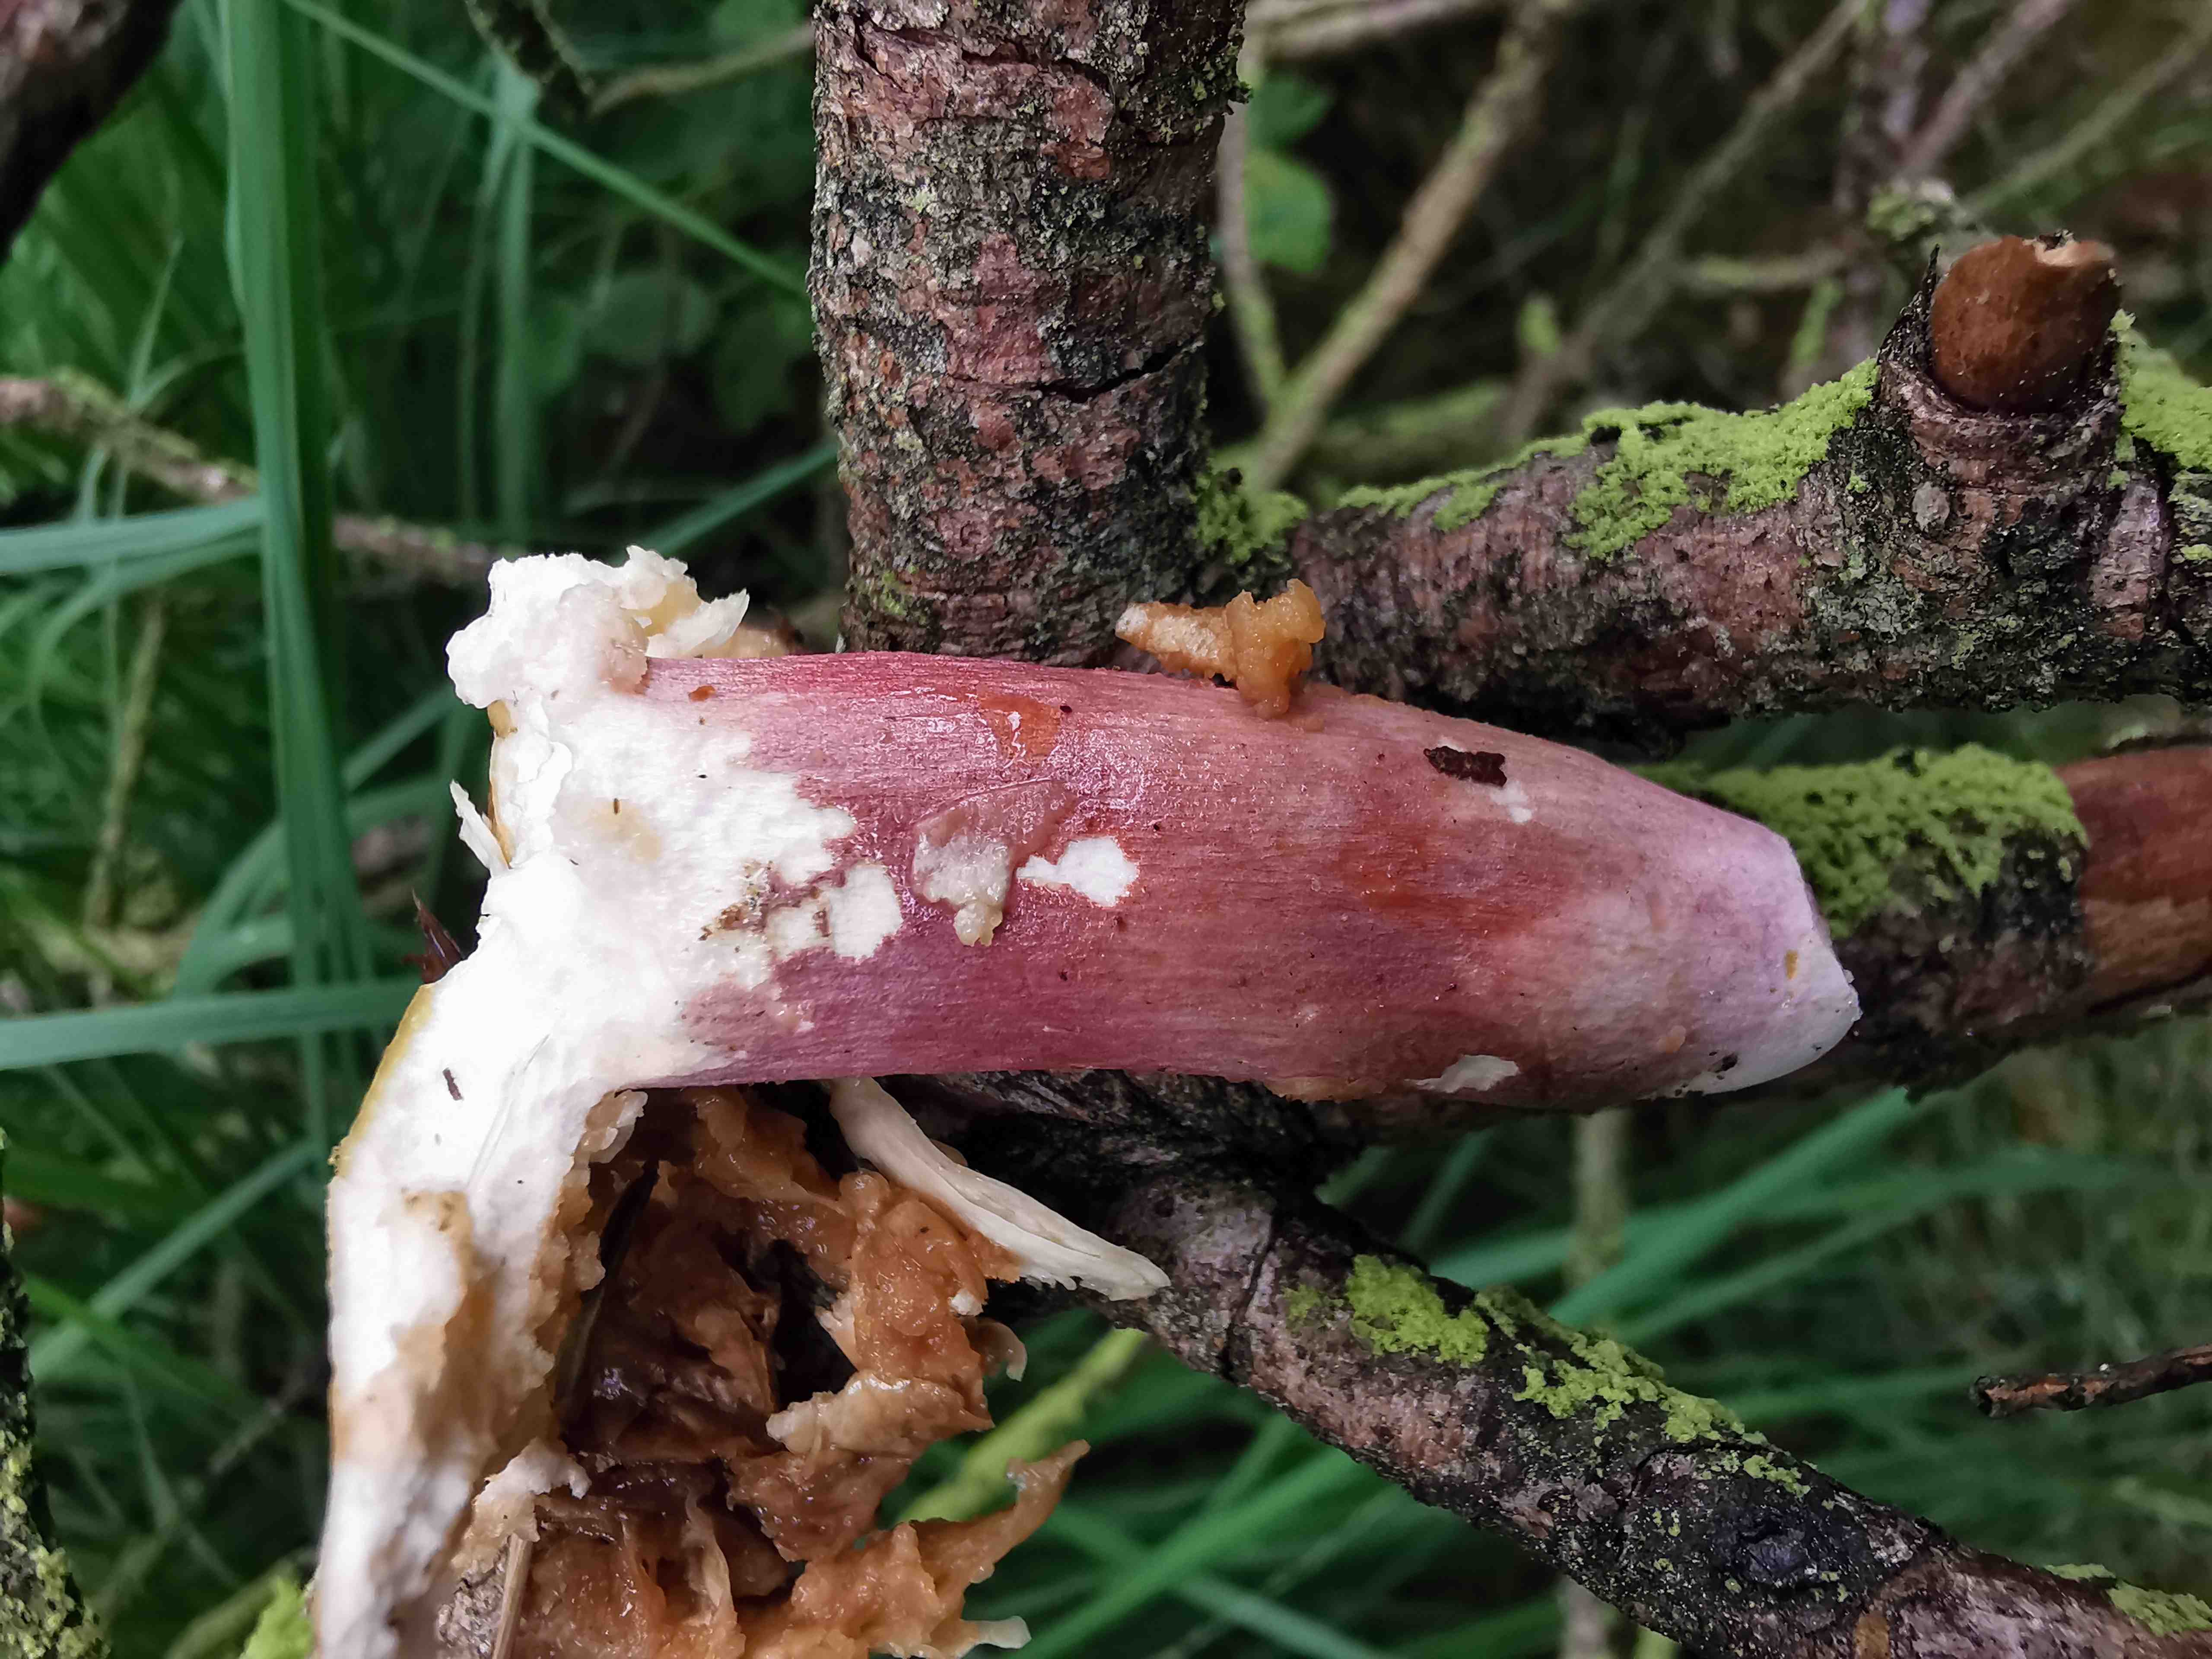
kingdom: Fungi
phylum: Basidiomycota
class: Agaricomycetes
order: Russulales
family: Russulaceae
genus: Russula
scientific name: Russula violeipes
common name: ferskengul skørhat
